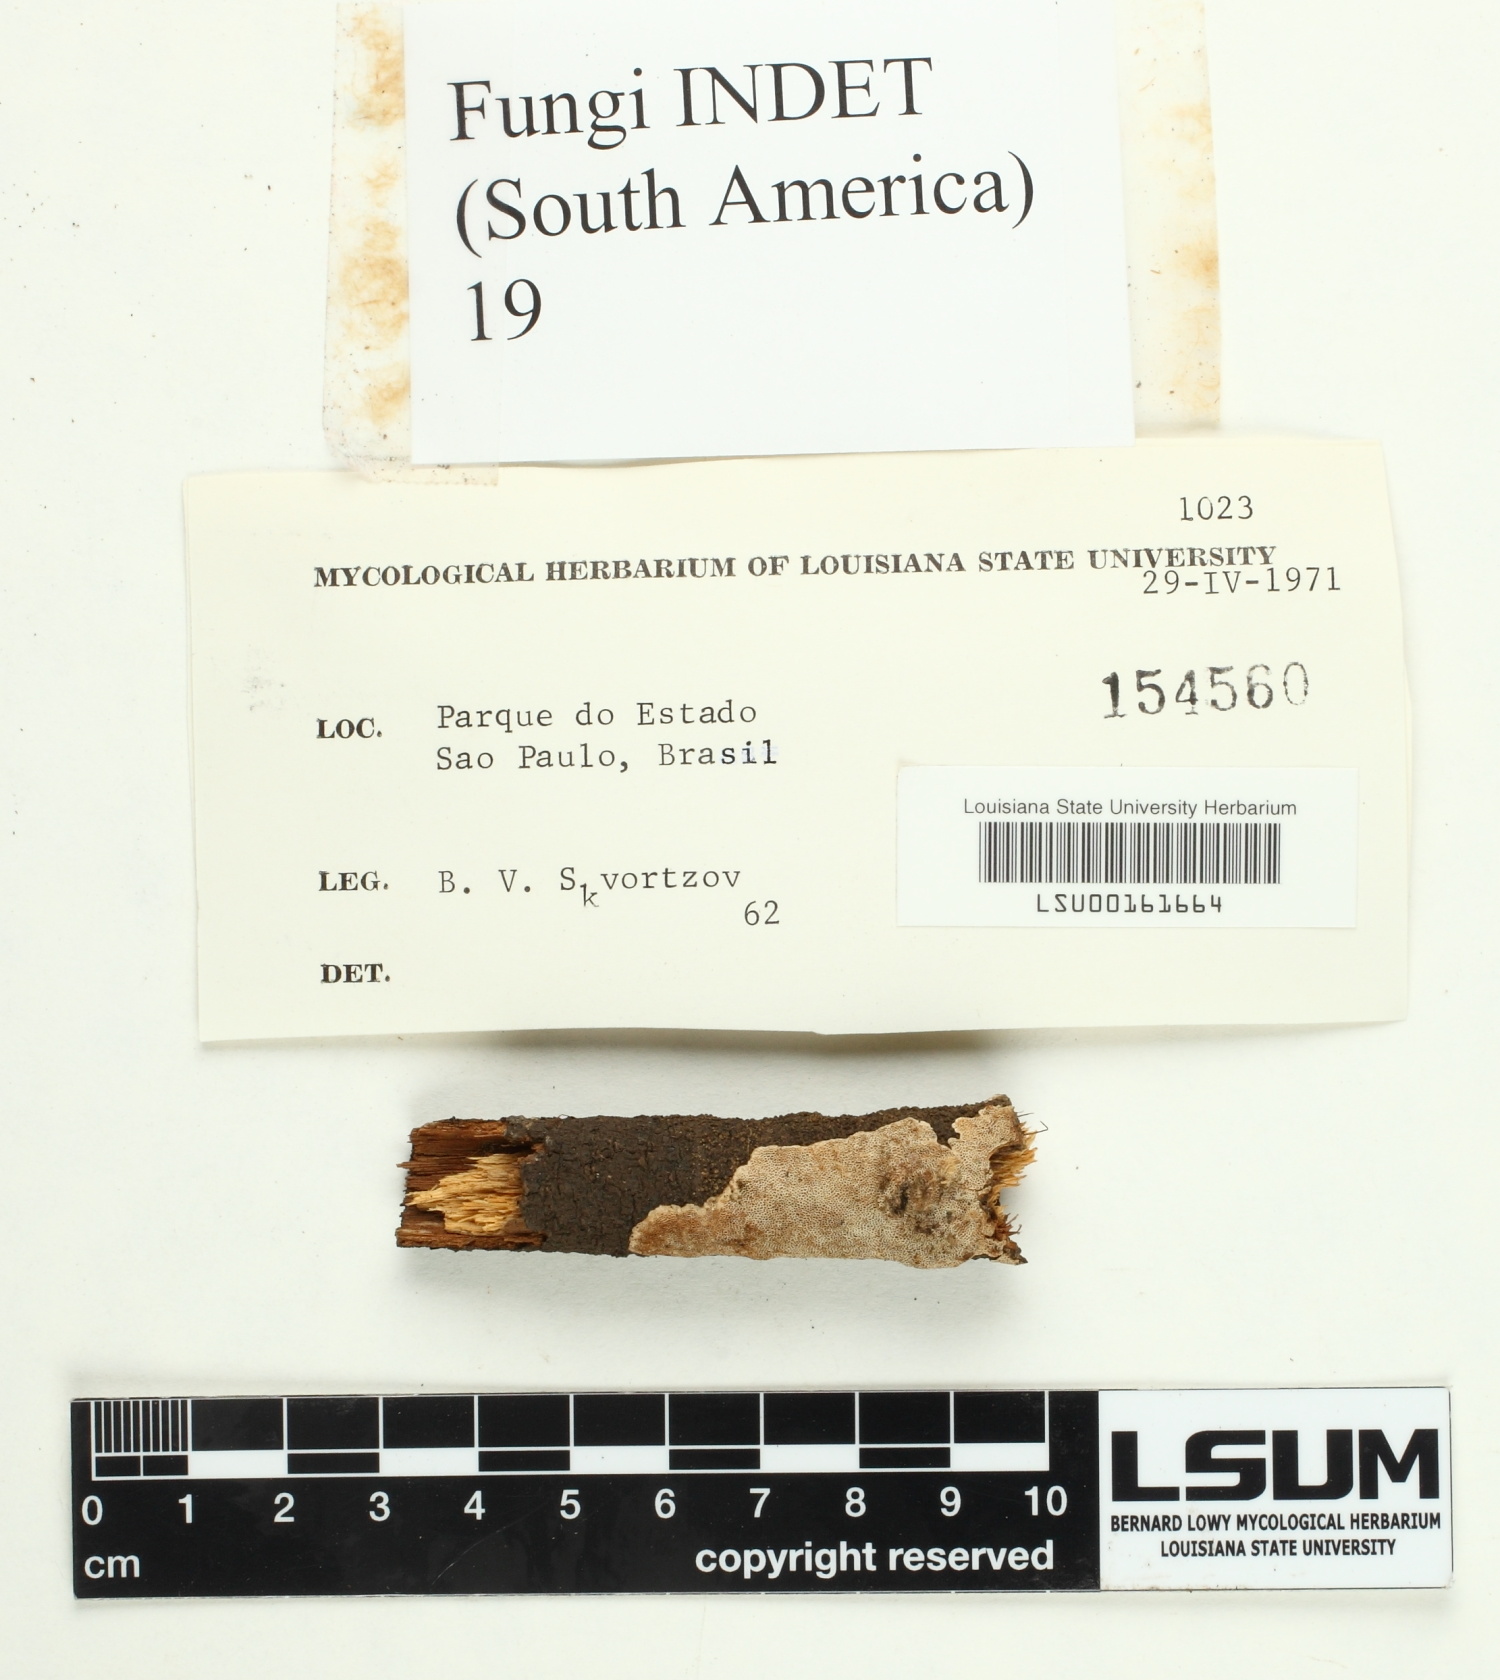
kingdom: Fungi
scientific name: Fungi
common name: Fungi
